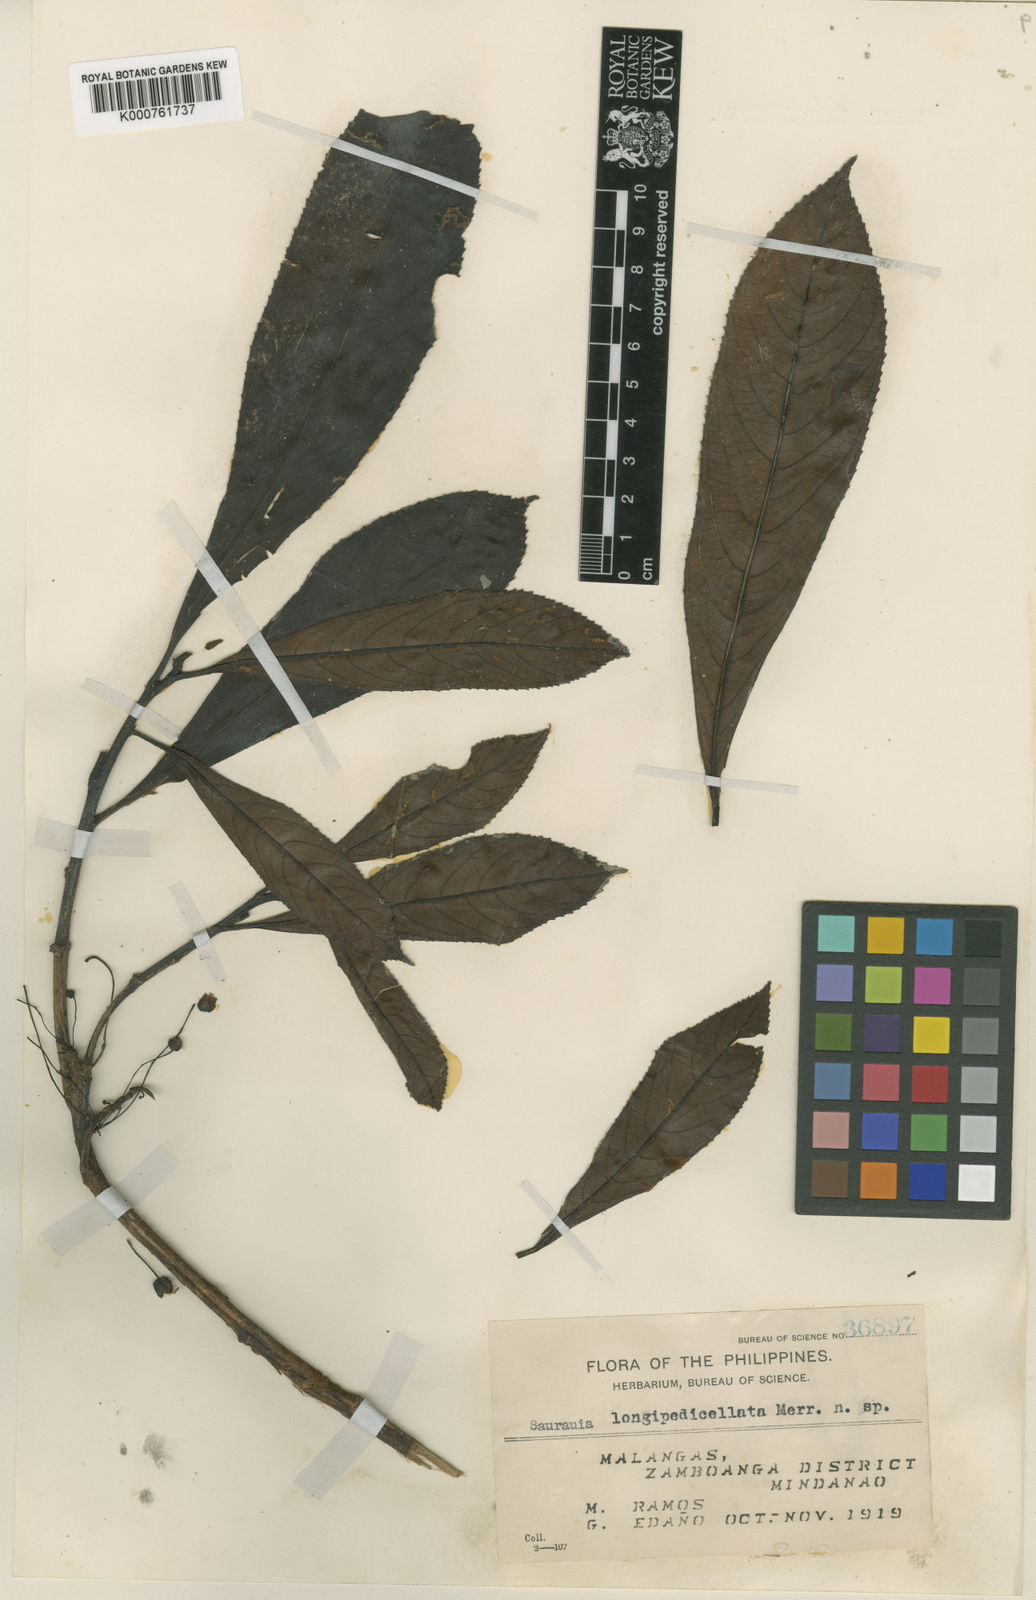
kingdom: Plantae
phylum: Tracheophyta
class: Magnoliopsida
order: Ericales
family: Actinidiaceae
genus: Saurauia
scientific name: Saurauia
